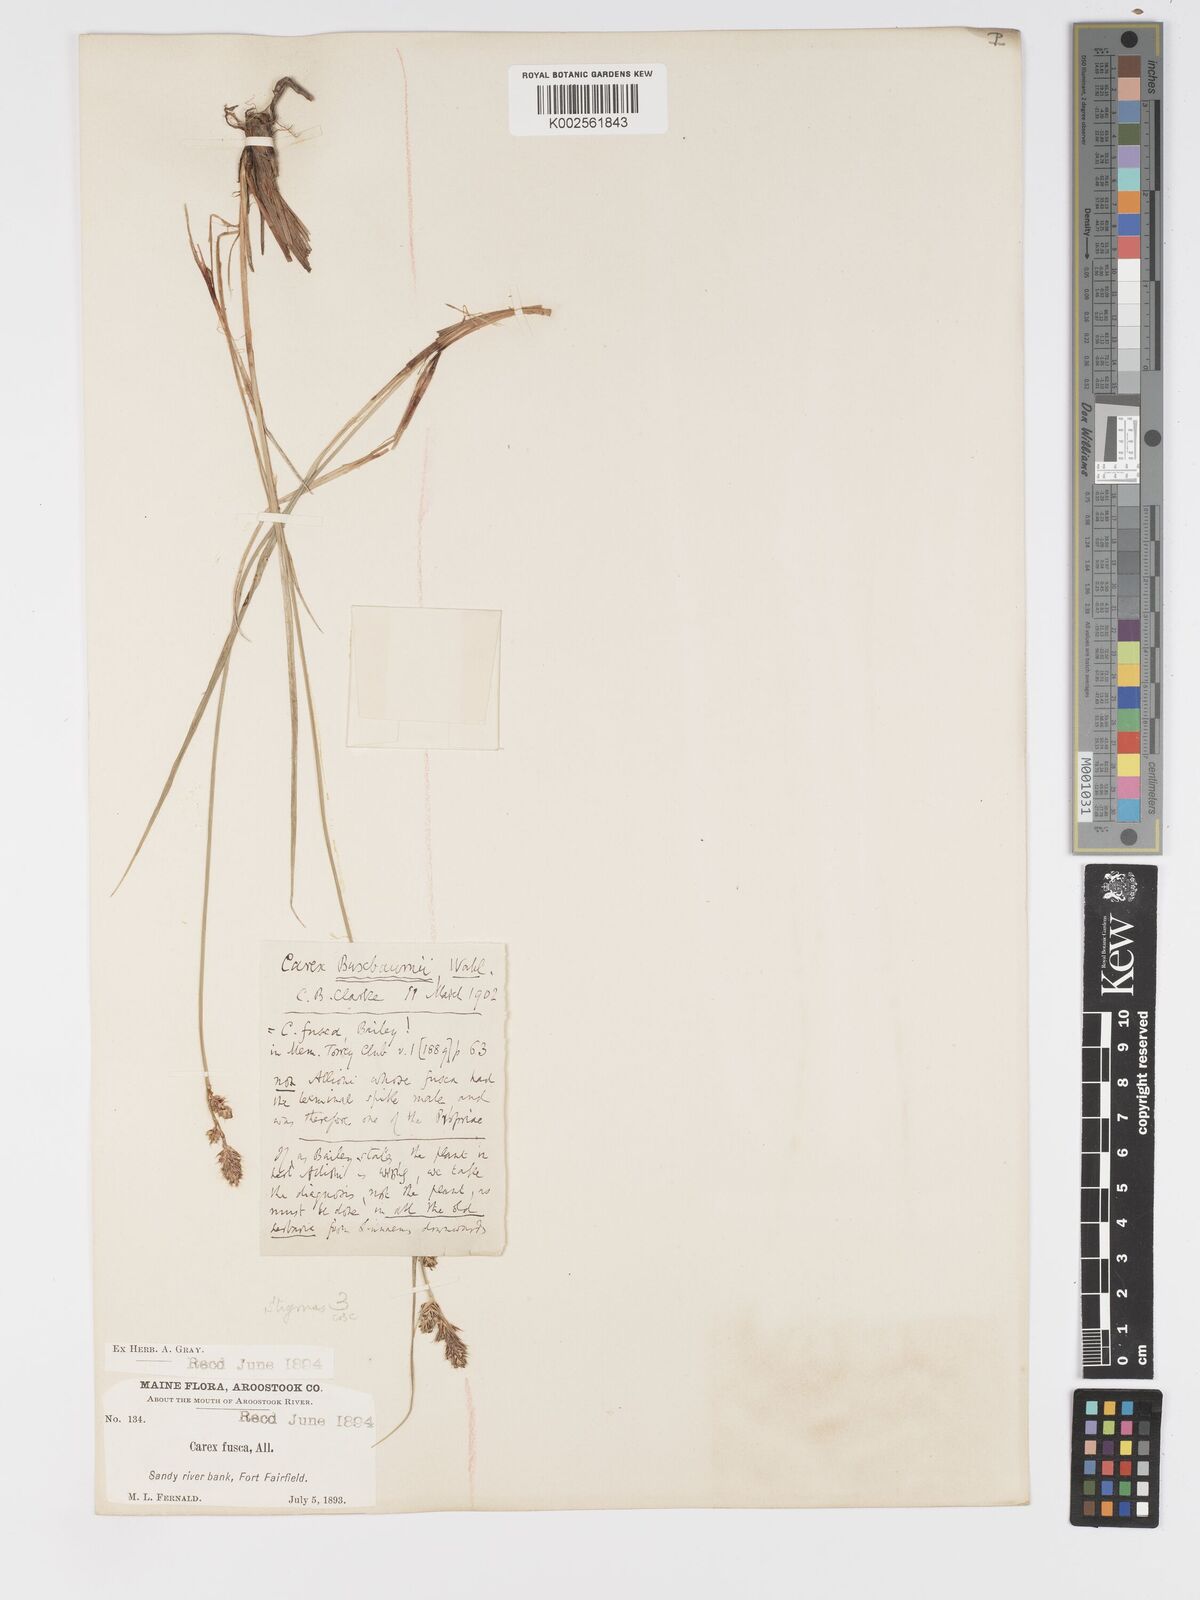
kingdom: Plantae
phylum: Tracheophyta
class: Liliopsida
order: Poales
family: Cyperaceae
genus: Carex
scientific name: Carex buxbaumii
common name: Club sedge
